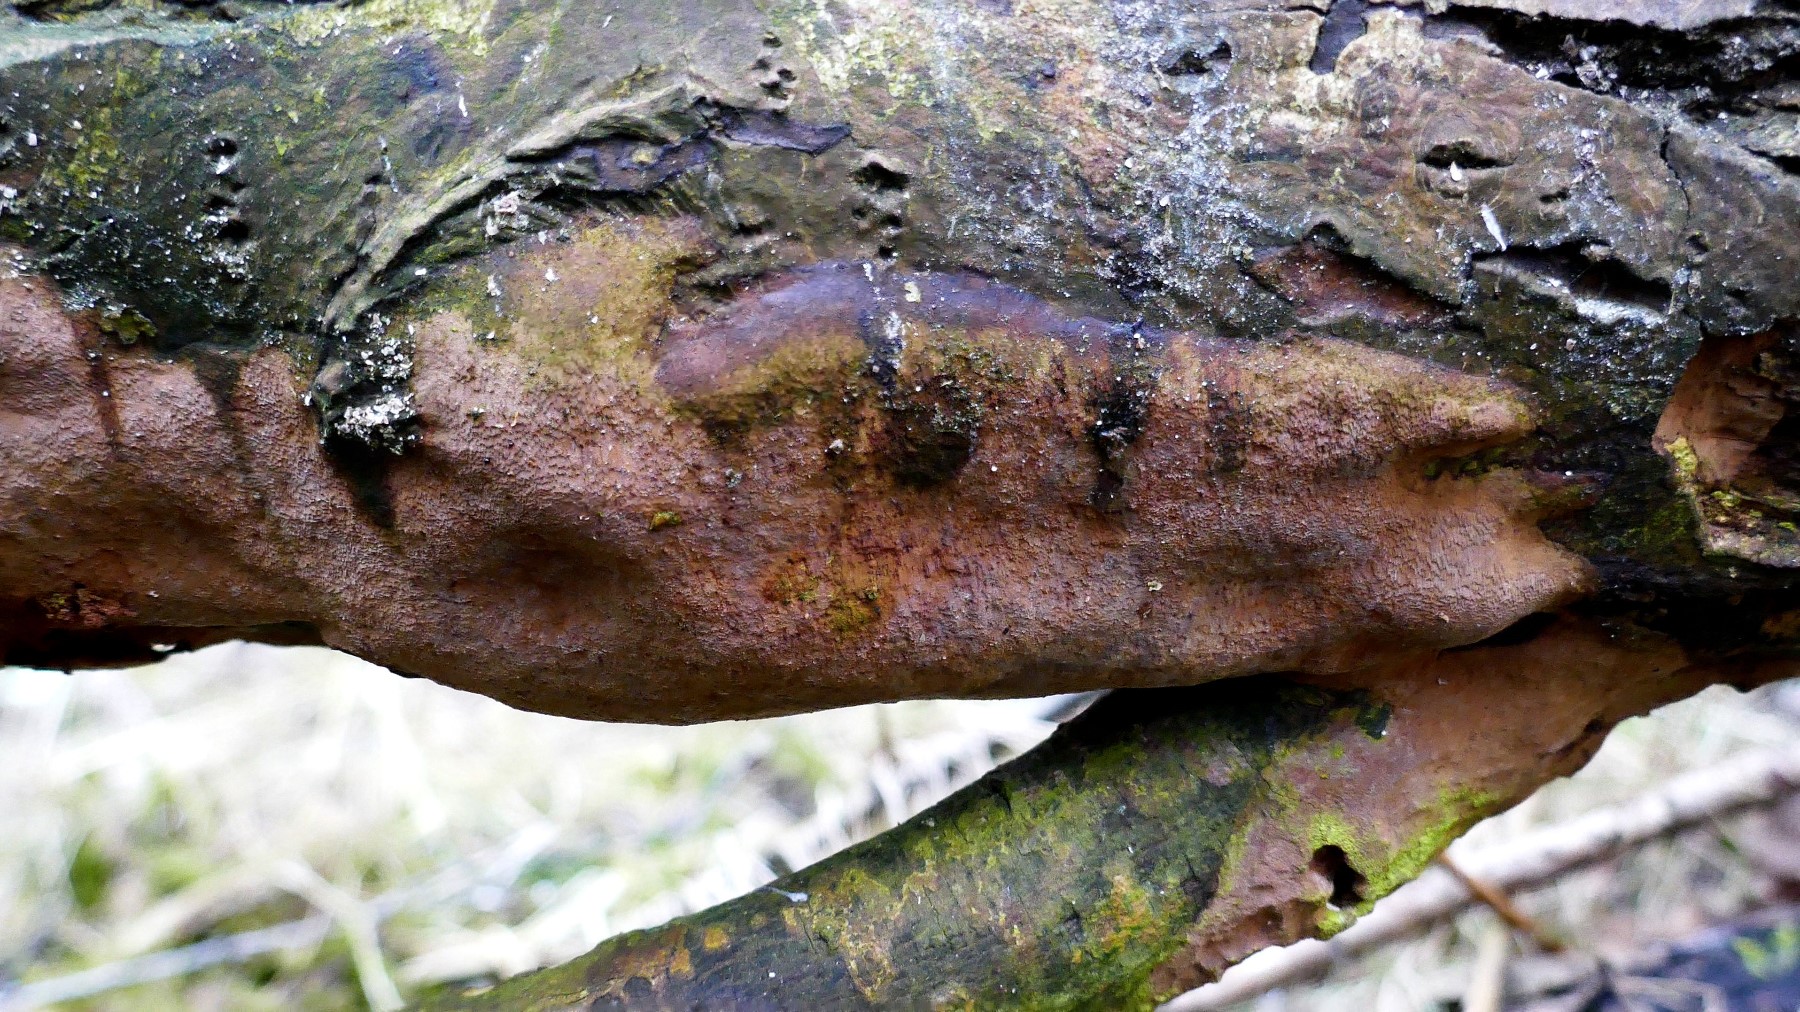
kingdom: Fungi
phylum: Basidiomycota
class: Agaricomycetes
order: Hymenochaetales
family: Hymenochaetaceae
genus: Fuscoporia
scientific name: Fuscoporia ferrea
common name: skorpe-ildporesvamp
